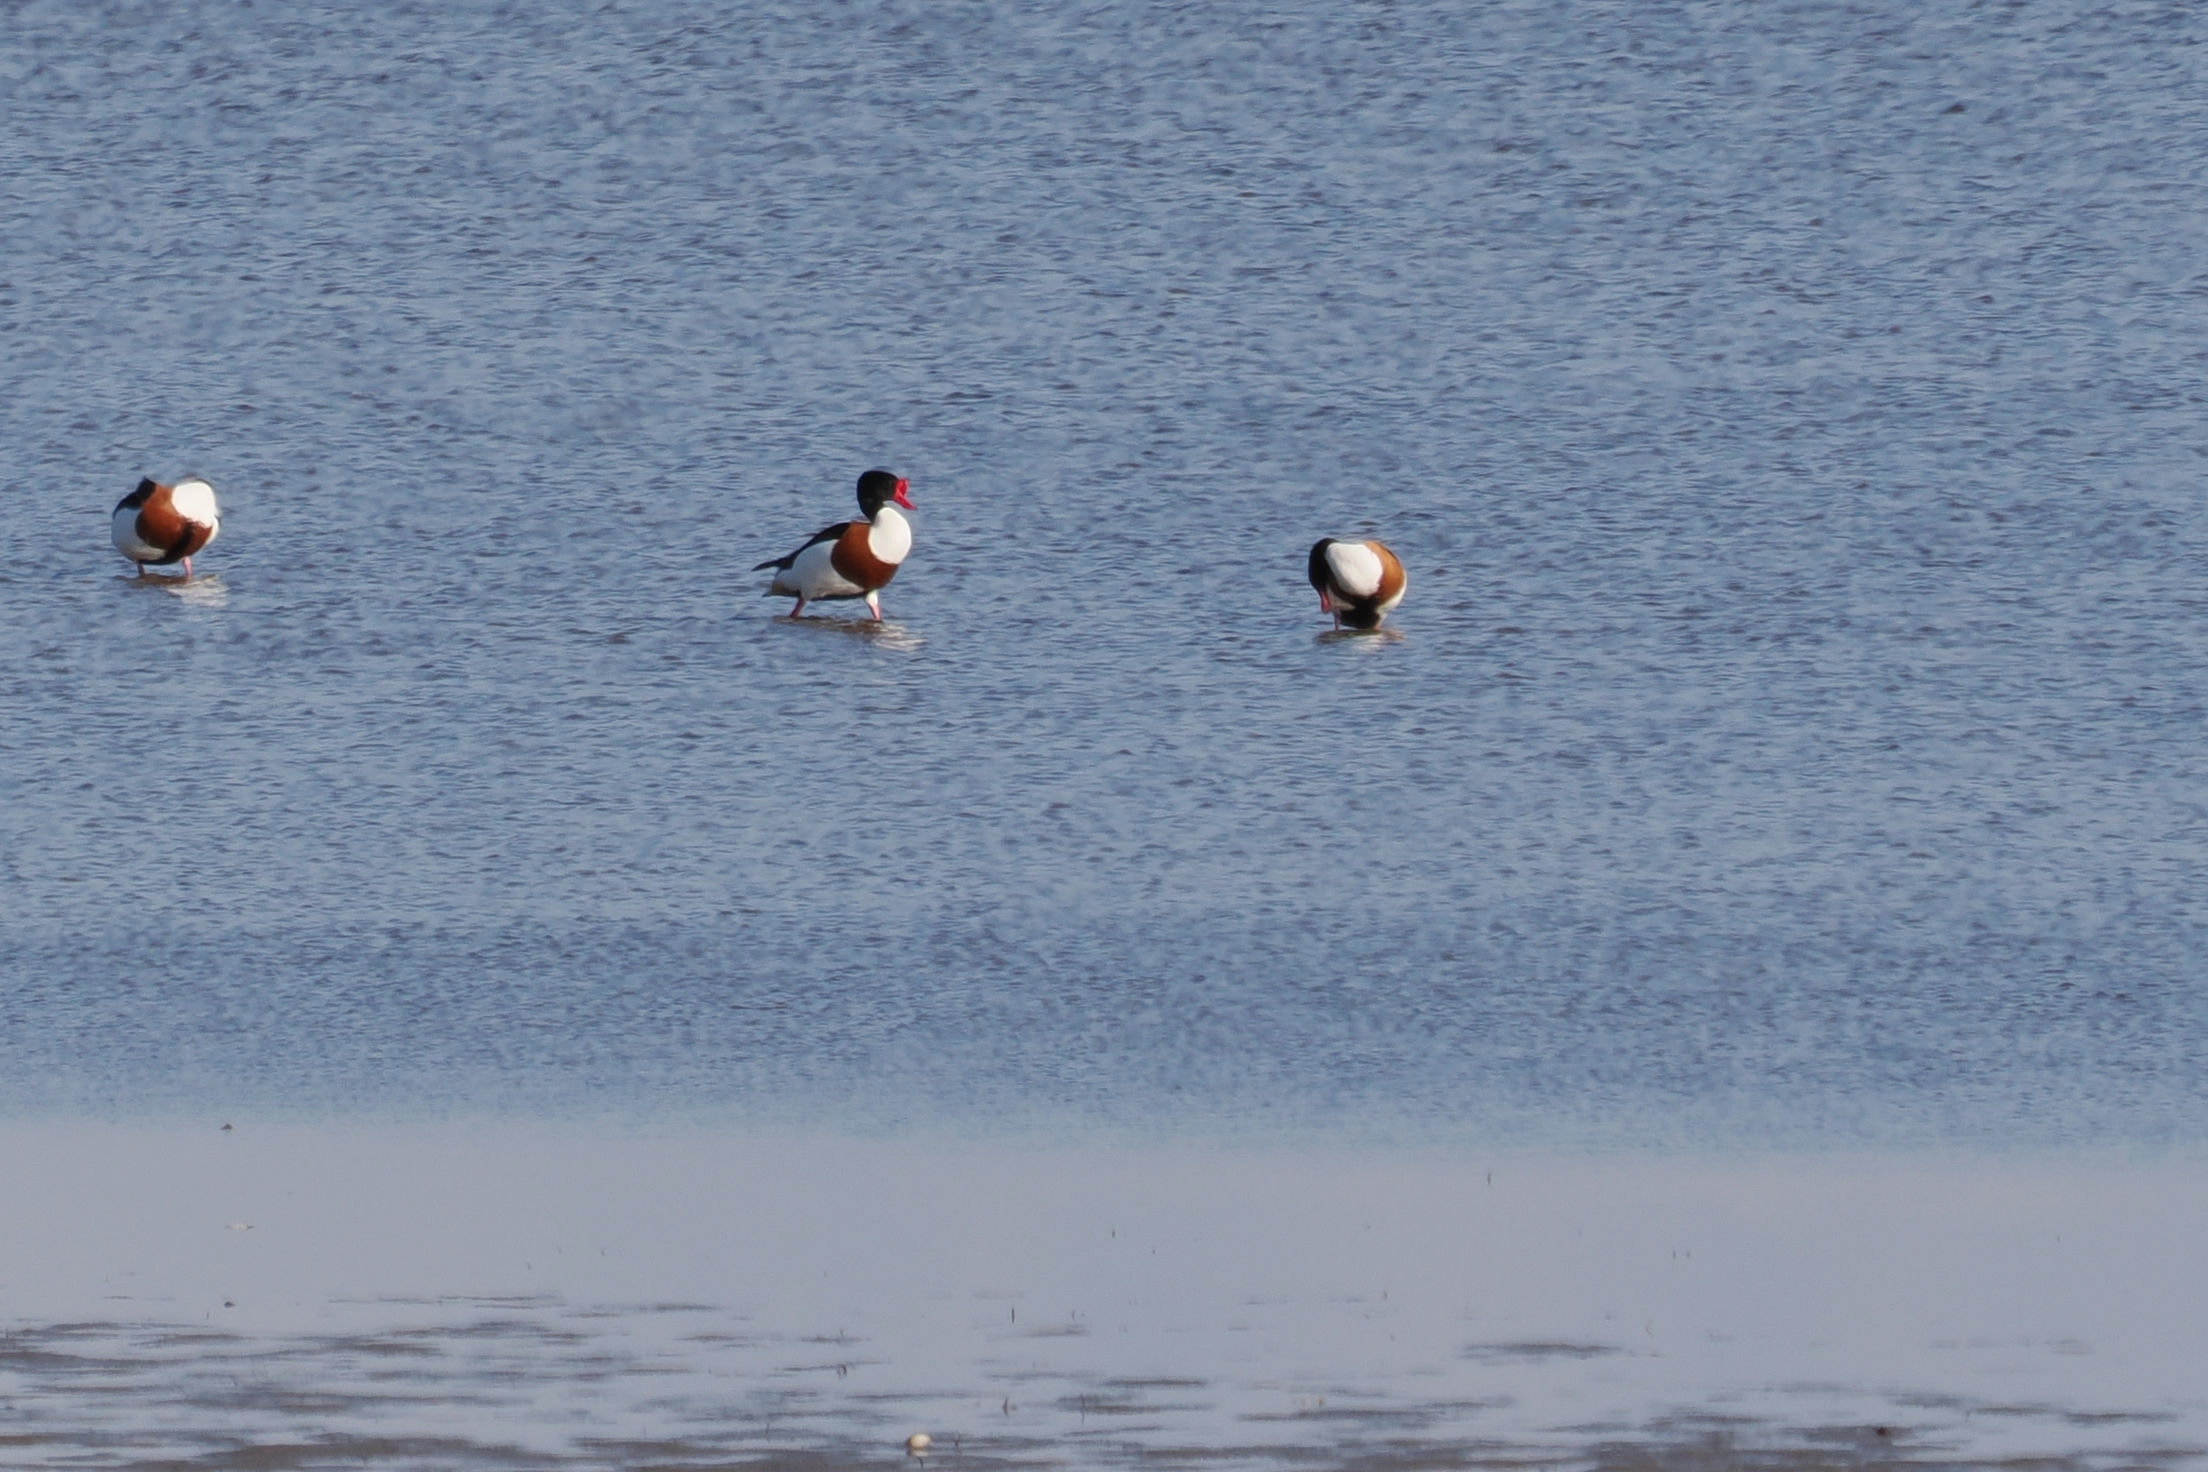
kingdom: Animalia
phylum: Chordata
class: Aves
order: Anseriformes
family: Anatidae
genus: Tadorna
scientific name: Tadorna tadorna
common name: Gravand
